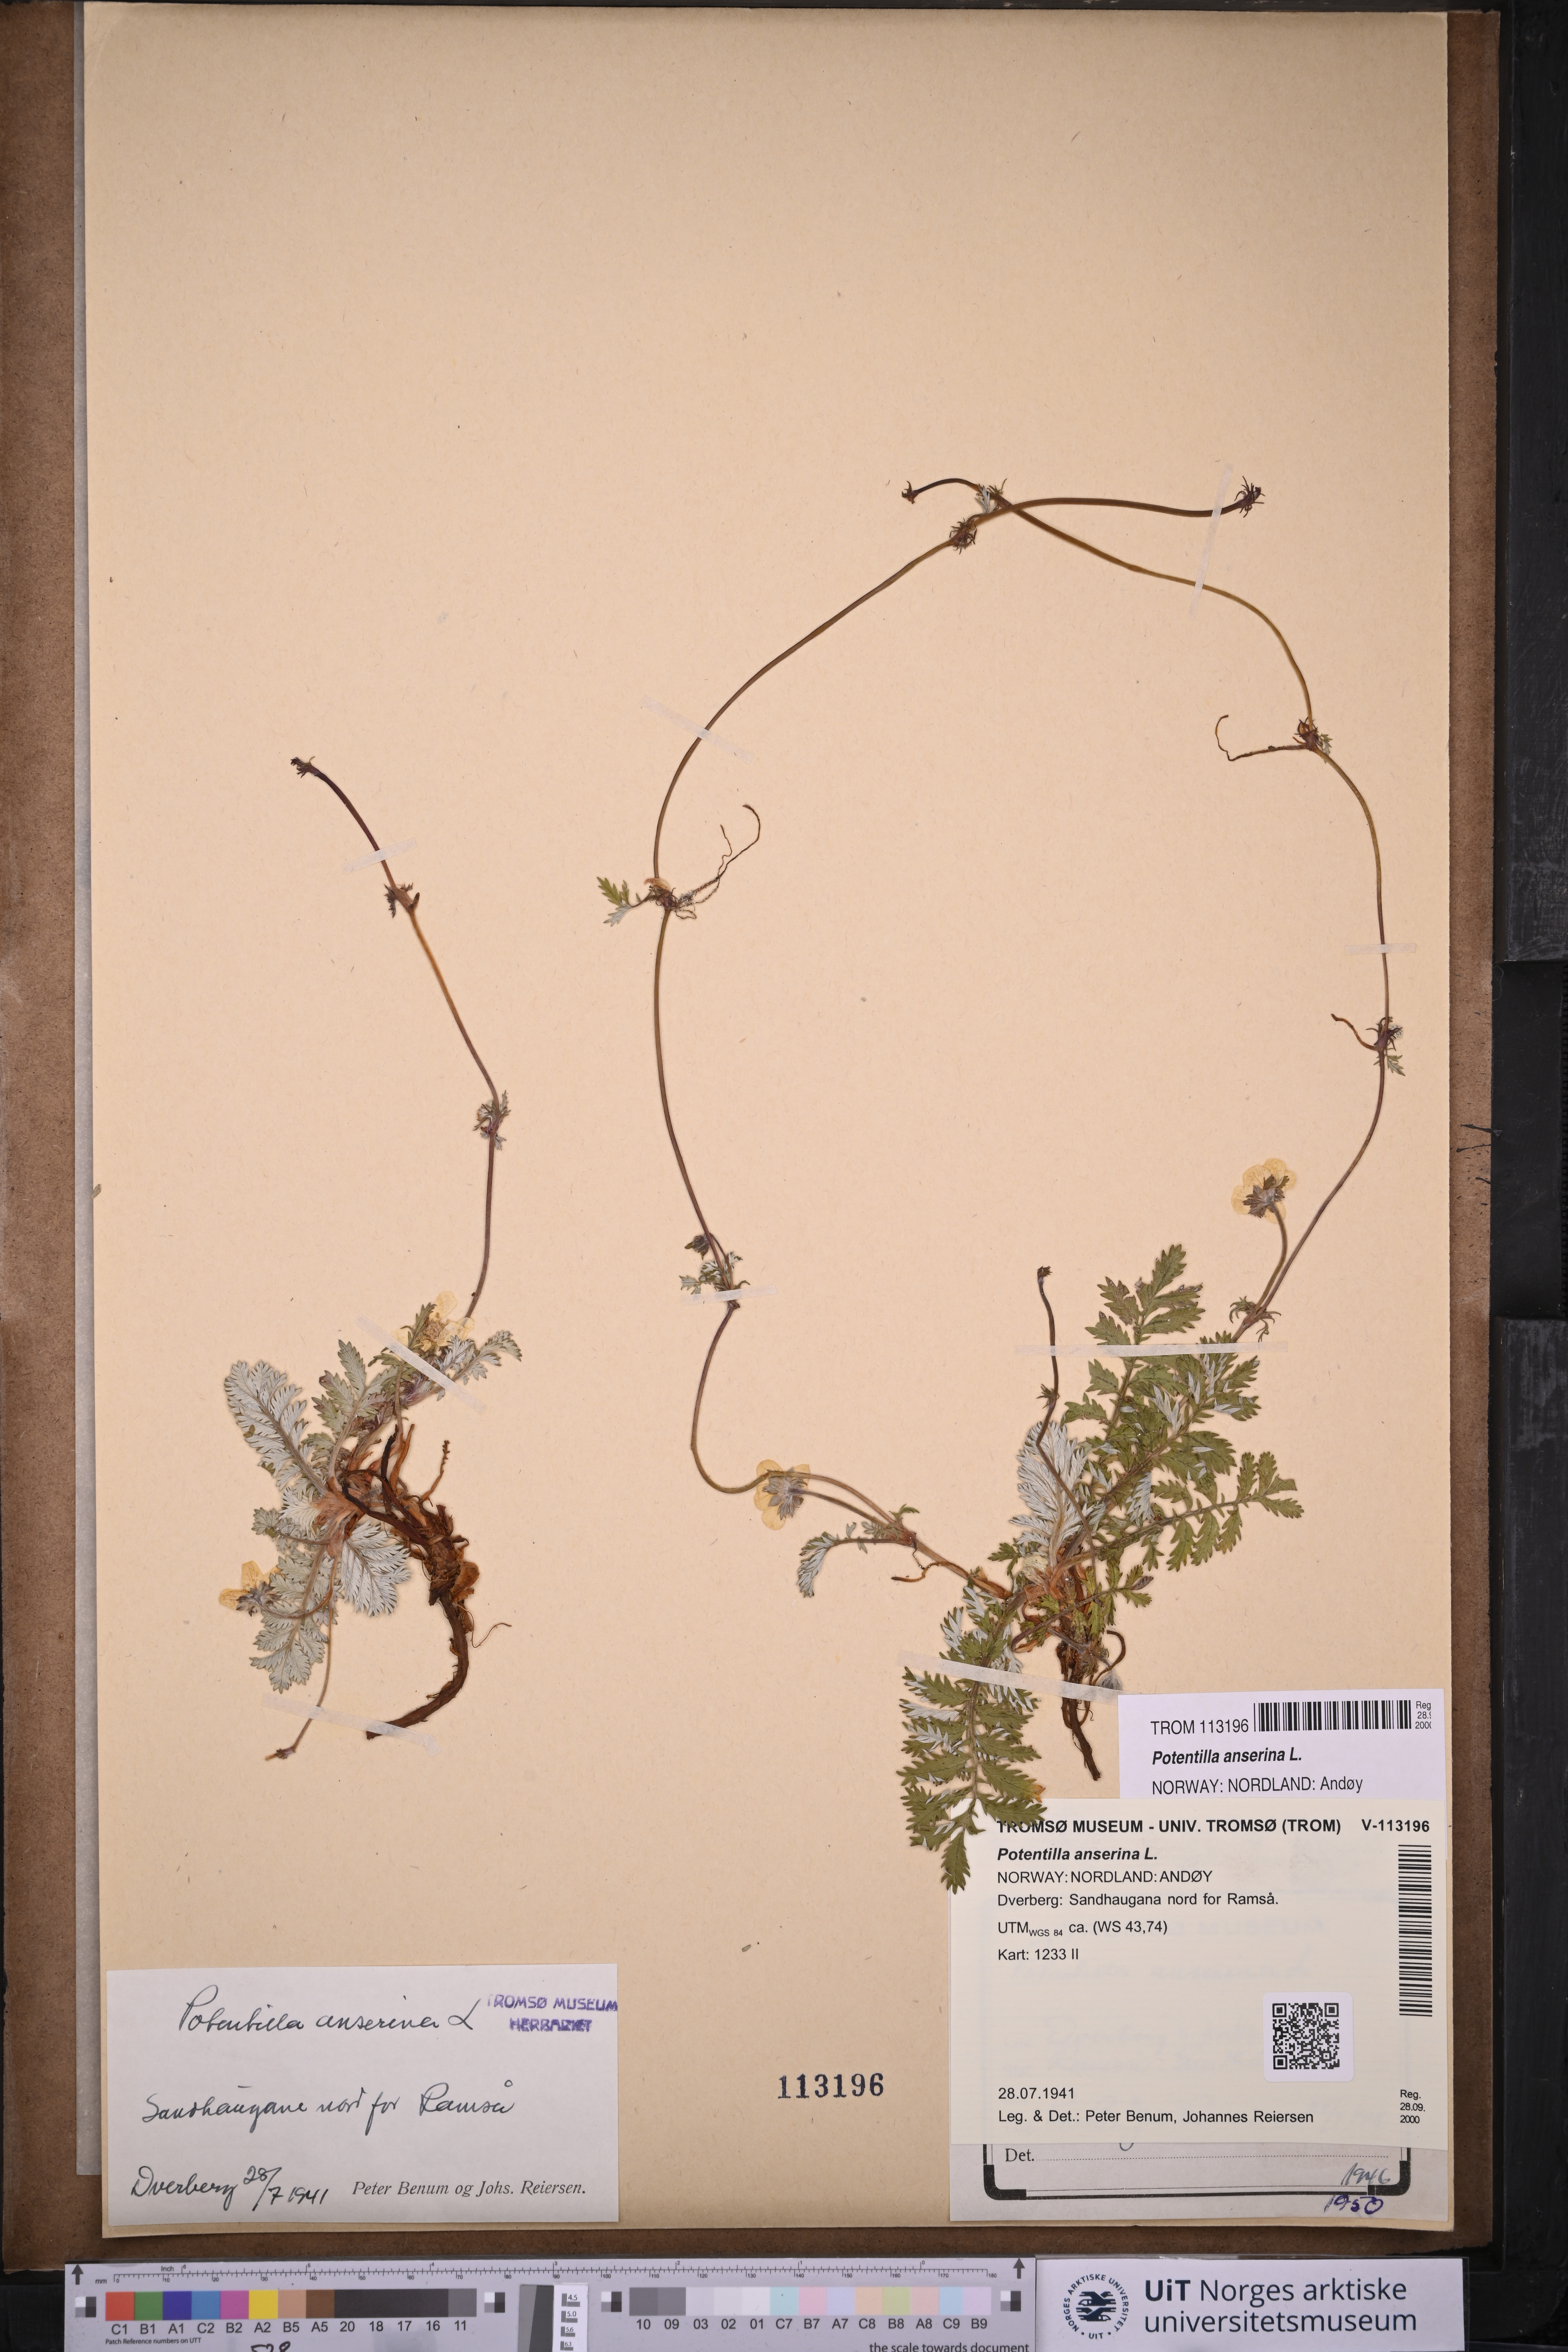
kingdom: Plantae
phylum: Tracheophyta
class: Magnoliopsida
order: Rosales
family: Rosaceae
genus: Argentina
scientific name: Argentina anserina
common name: Common silverweed
